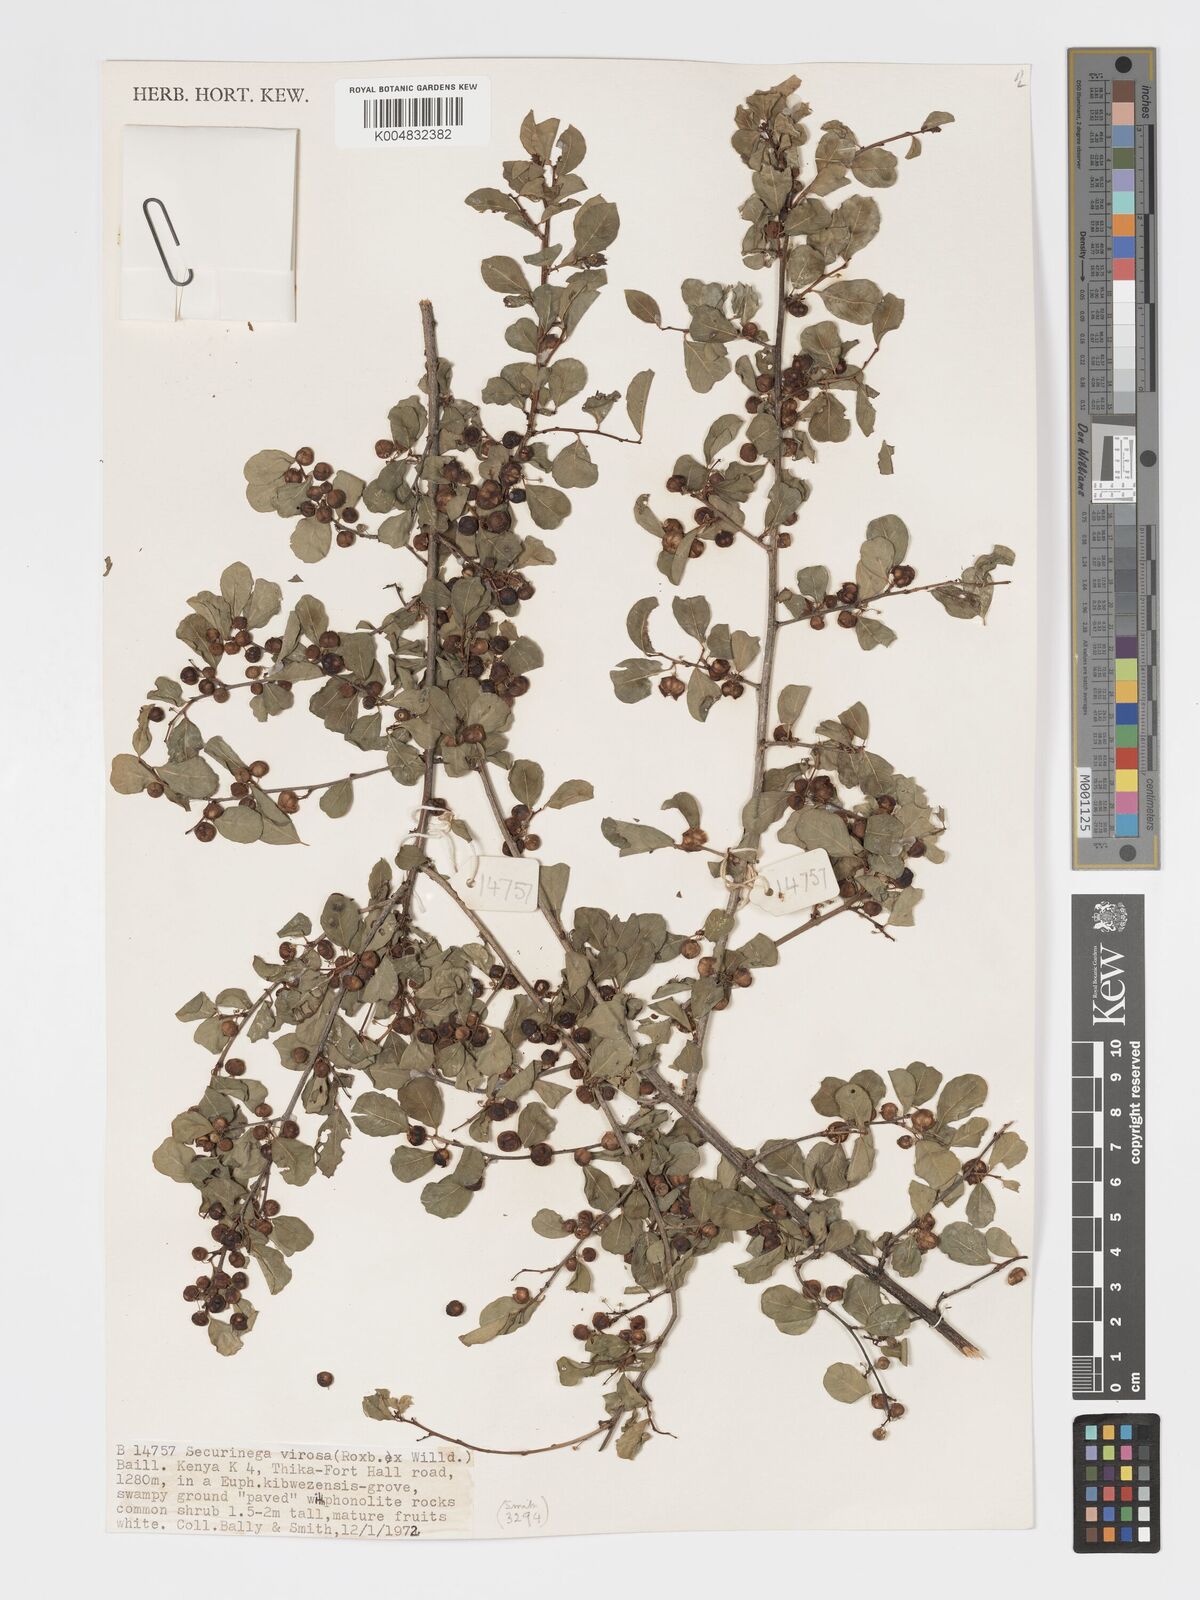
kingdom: Plantae
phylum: Tracheophyta
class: Magnoliopsida
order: Malpighiales
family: Phyllanthaceae
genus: Flueggea
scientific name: Flueggea
